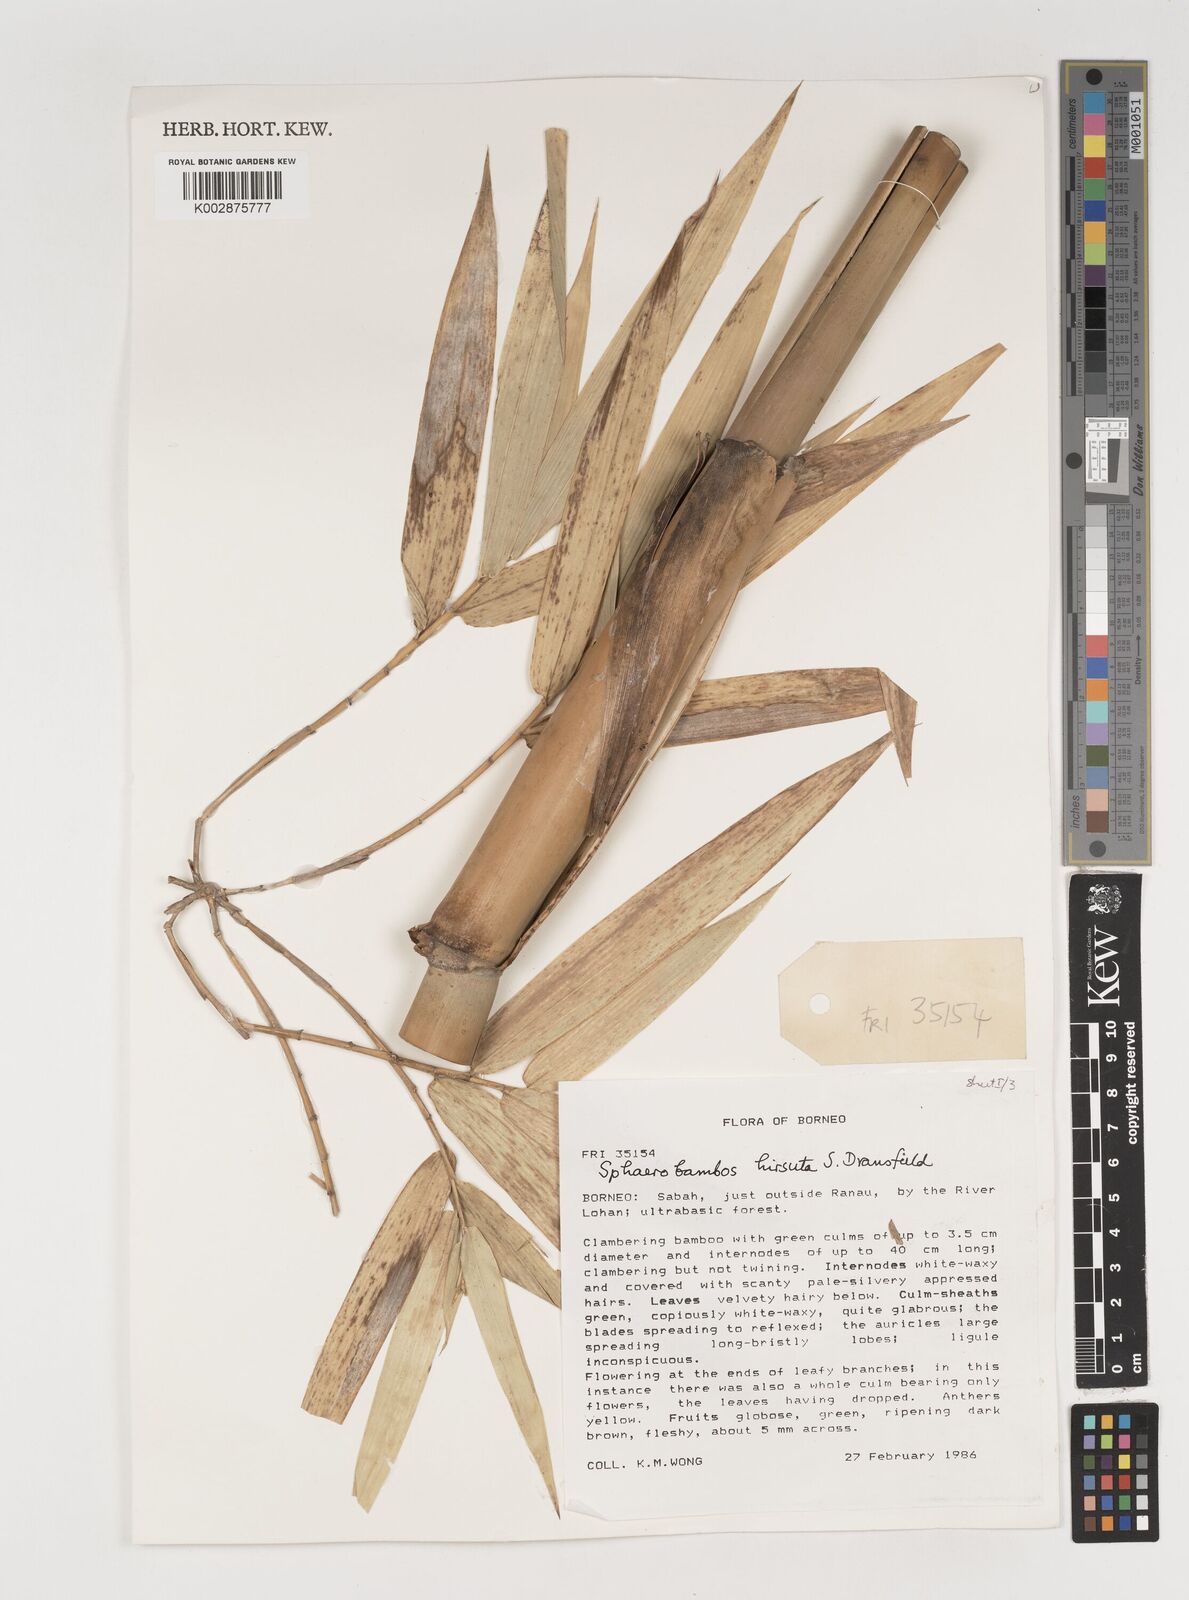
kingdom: Plantae
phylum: Tracheophyta
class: Liliopsida
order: Poales
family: Poaceae
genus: Sphaerobambos
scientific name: Sphaerobambos hirsuta
